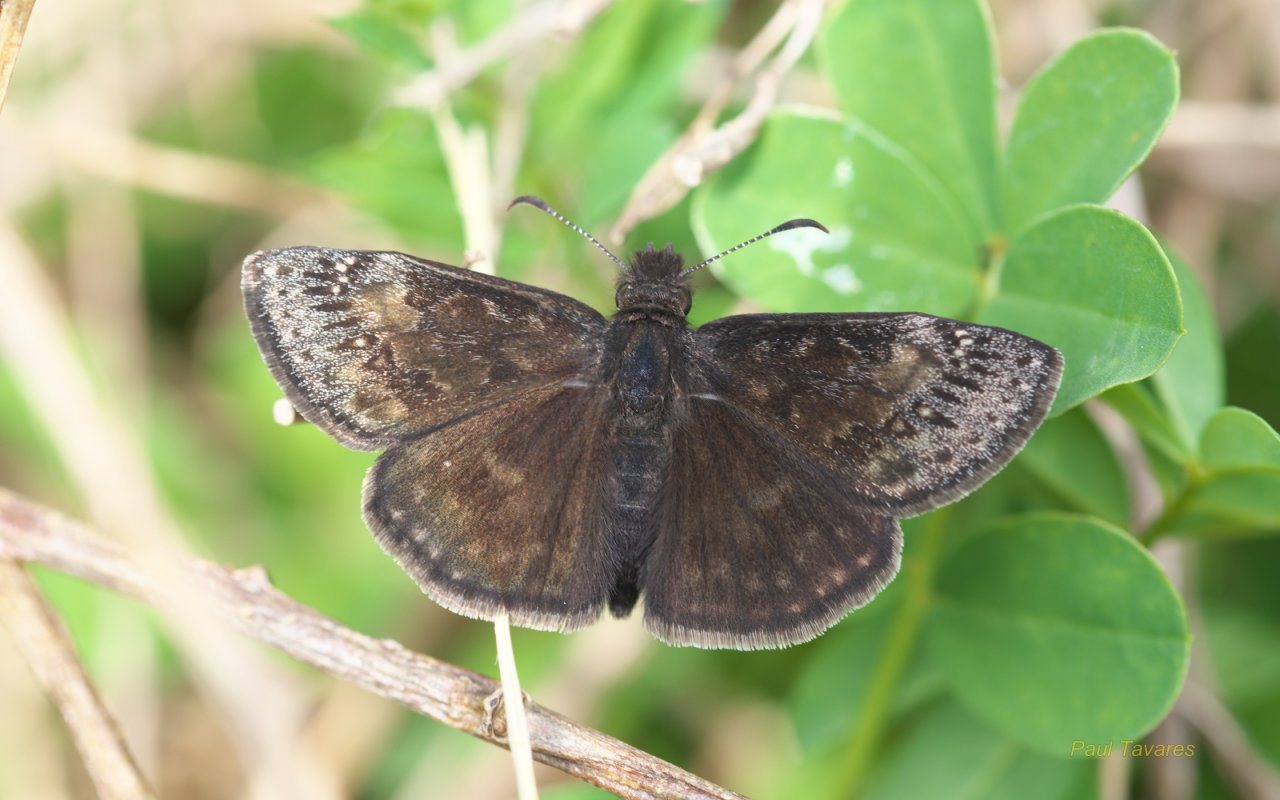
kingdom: Animalia
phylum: Arthropoda
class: Insecta
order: Lepidoptera
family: Hesperiidae
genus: Gesta
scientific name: Gesta
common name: Wild Indigo Duskywing
